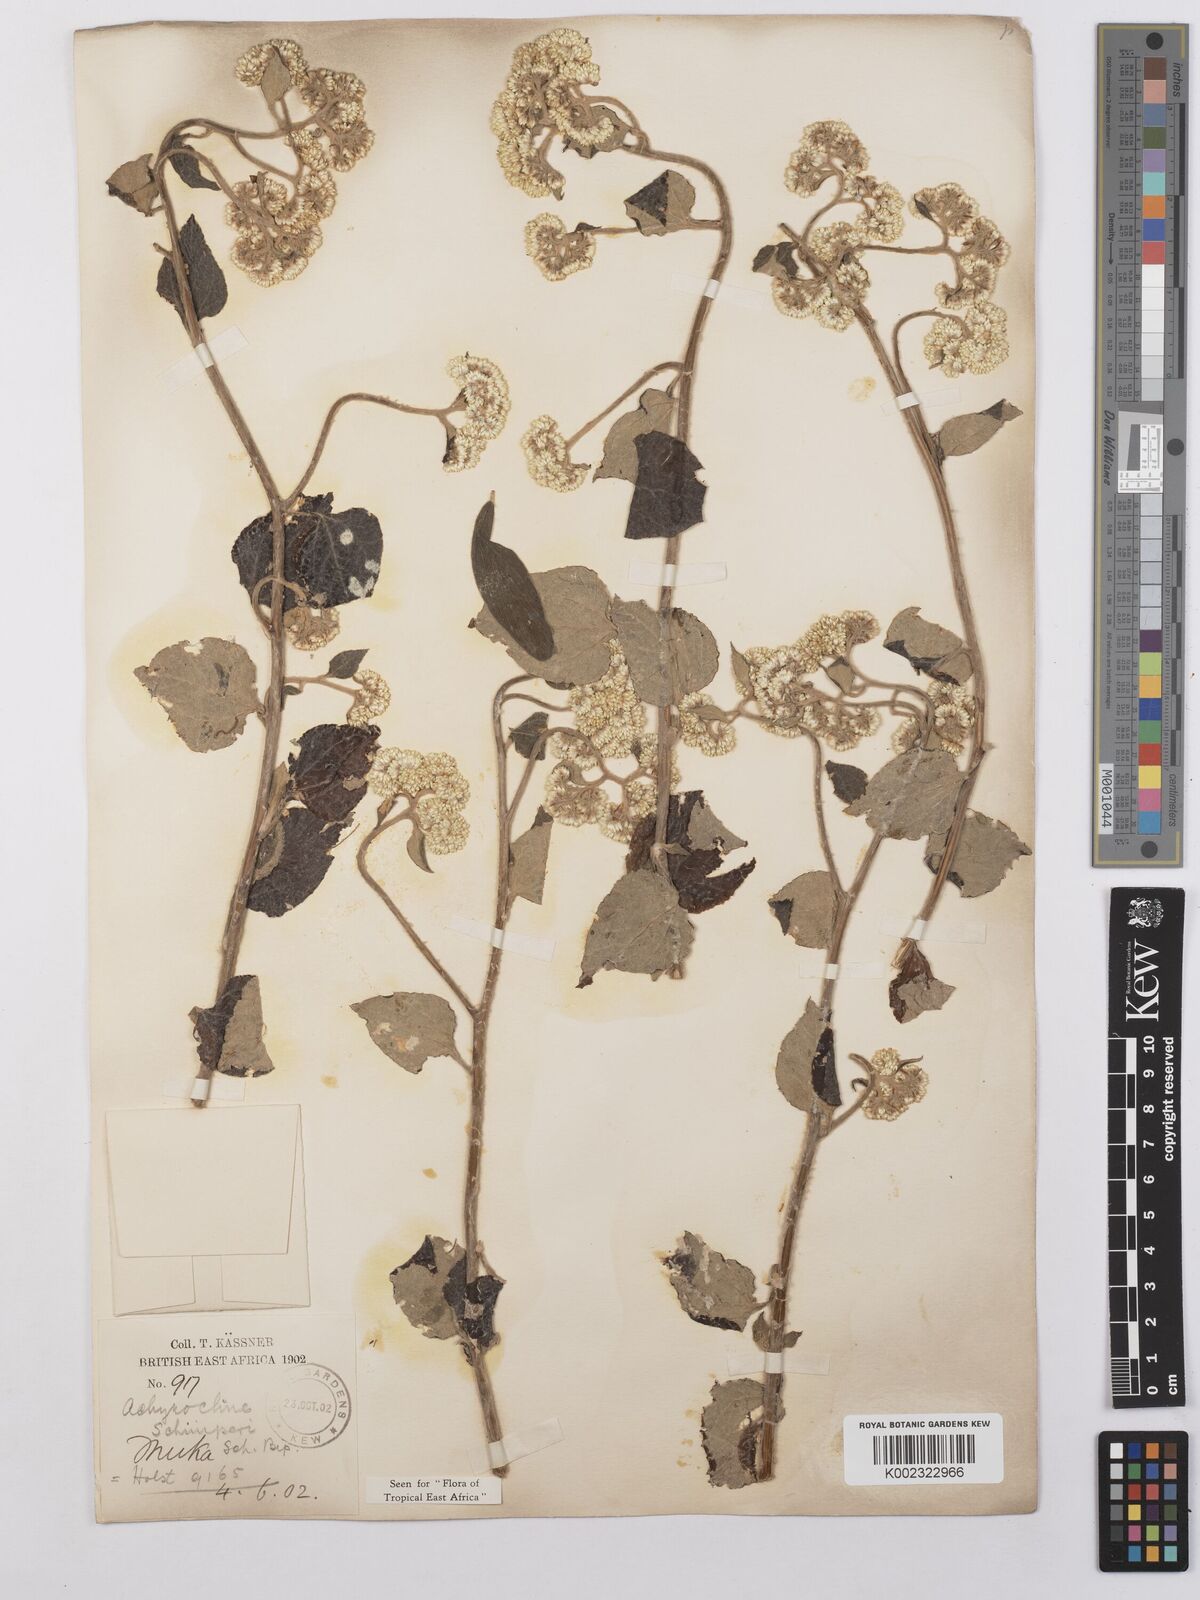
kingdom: Plantae
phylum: Tracheophyta
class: Magnoliopsida
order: Asterales
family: Asteraceae
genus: Helichrysum
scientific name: Helichrysum schimperi
